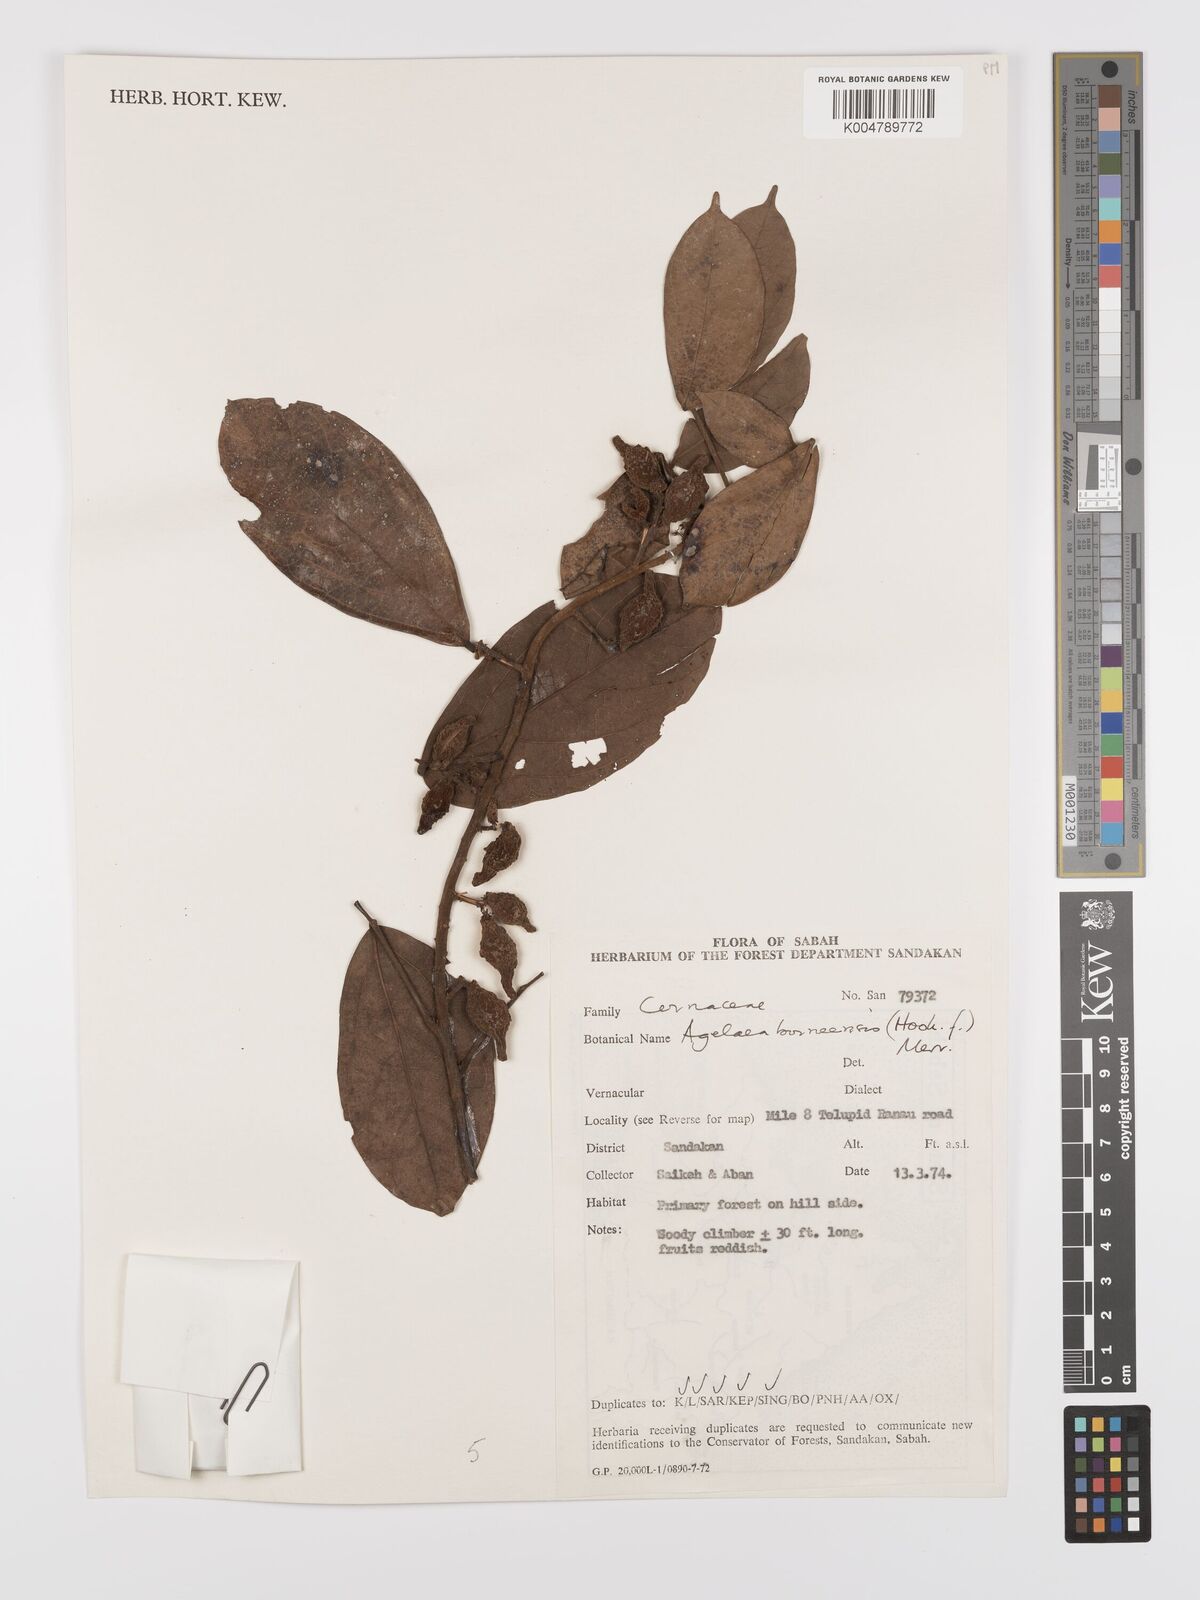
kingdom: Plantae
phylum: Tracheophyta
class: Magnoliopsida
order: Oxalidales
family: Connaraceae
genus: Agelaea
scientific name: Agelaea borneensis
